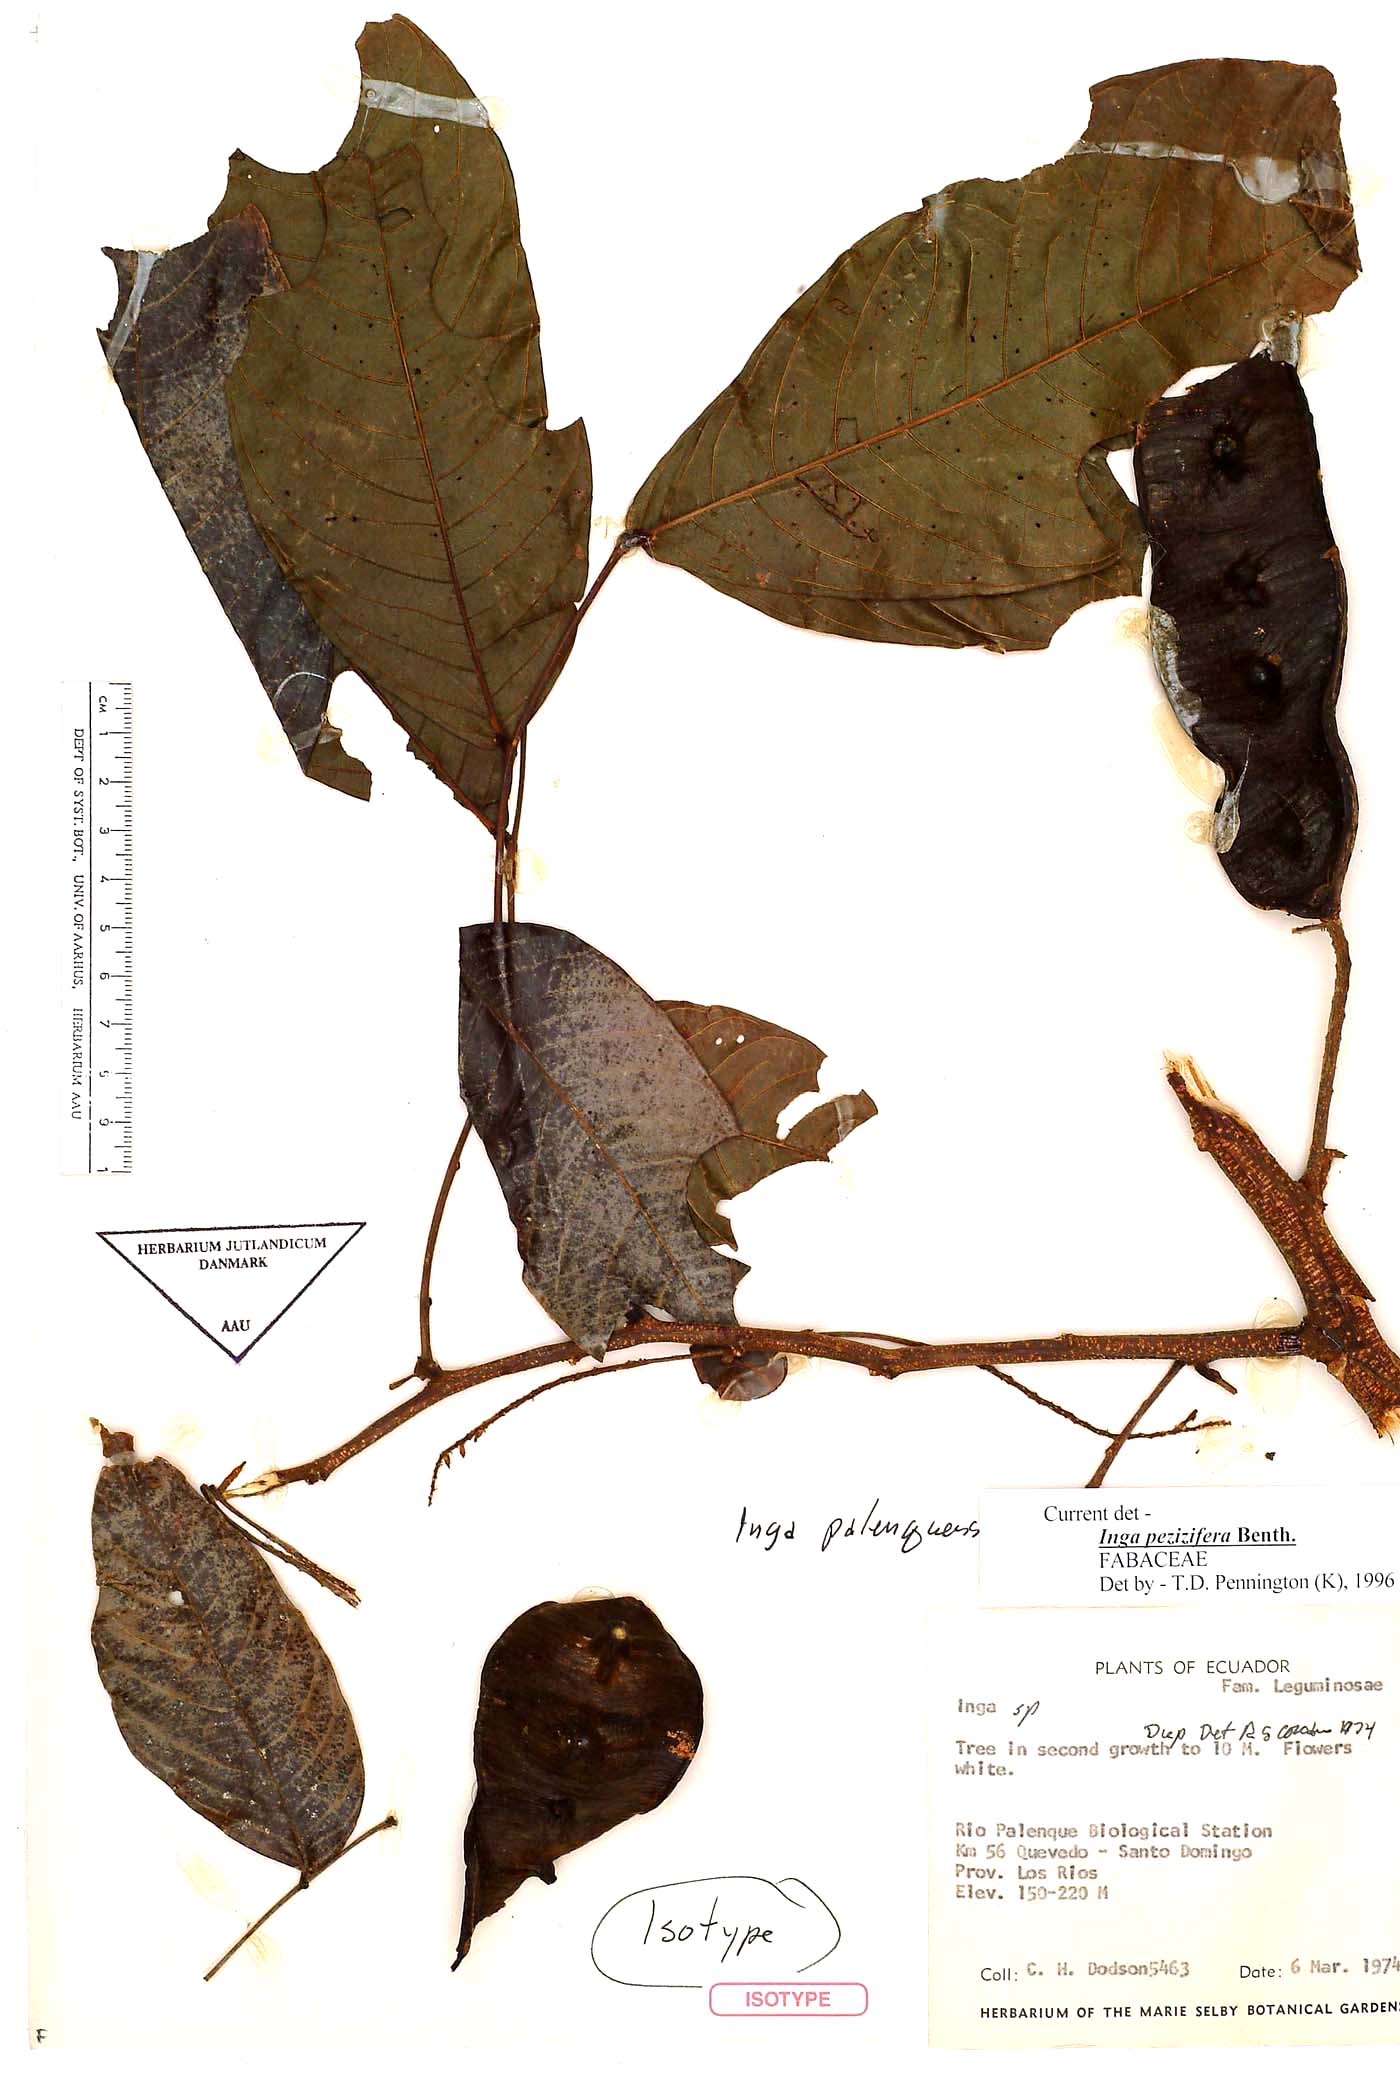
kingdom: Plantae
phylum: Tracheophyta
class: Magnoliopsida
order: Fabales
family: Fabaceae
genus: Inga
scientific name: Inga pezizifera
